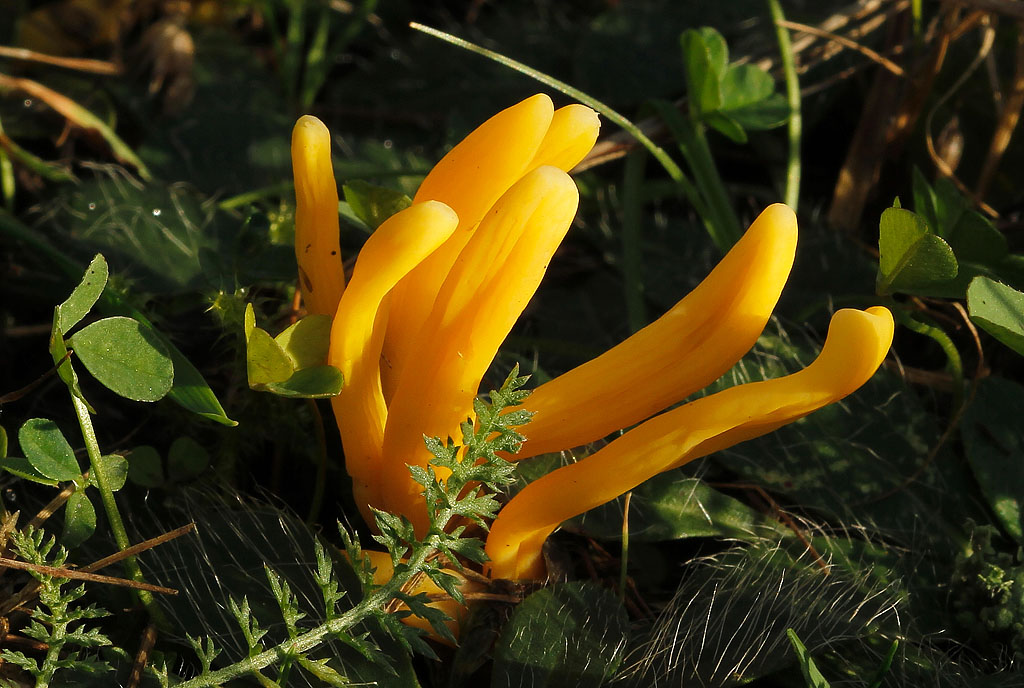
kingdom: Fungi
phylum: Basidiomycota
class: Agaricomycetes
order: Agaricales
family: Clavariaceae
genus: Clavulinopsis
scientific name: Clavulinopsis helvola
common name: orangegul køllesvamp
